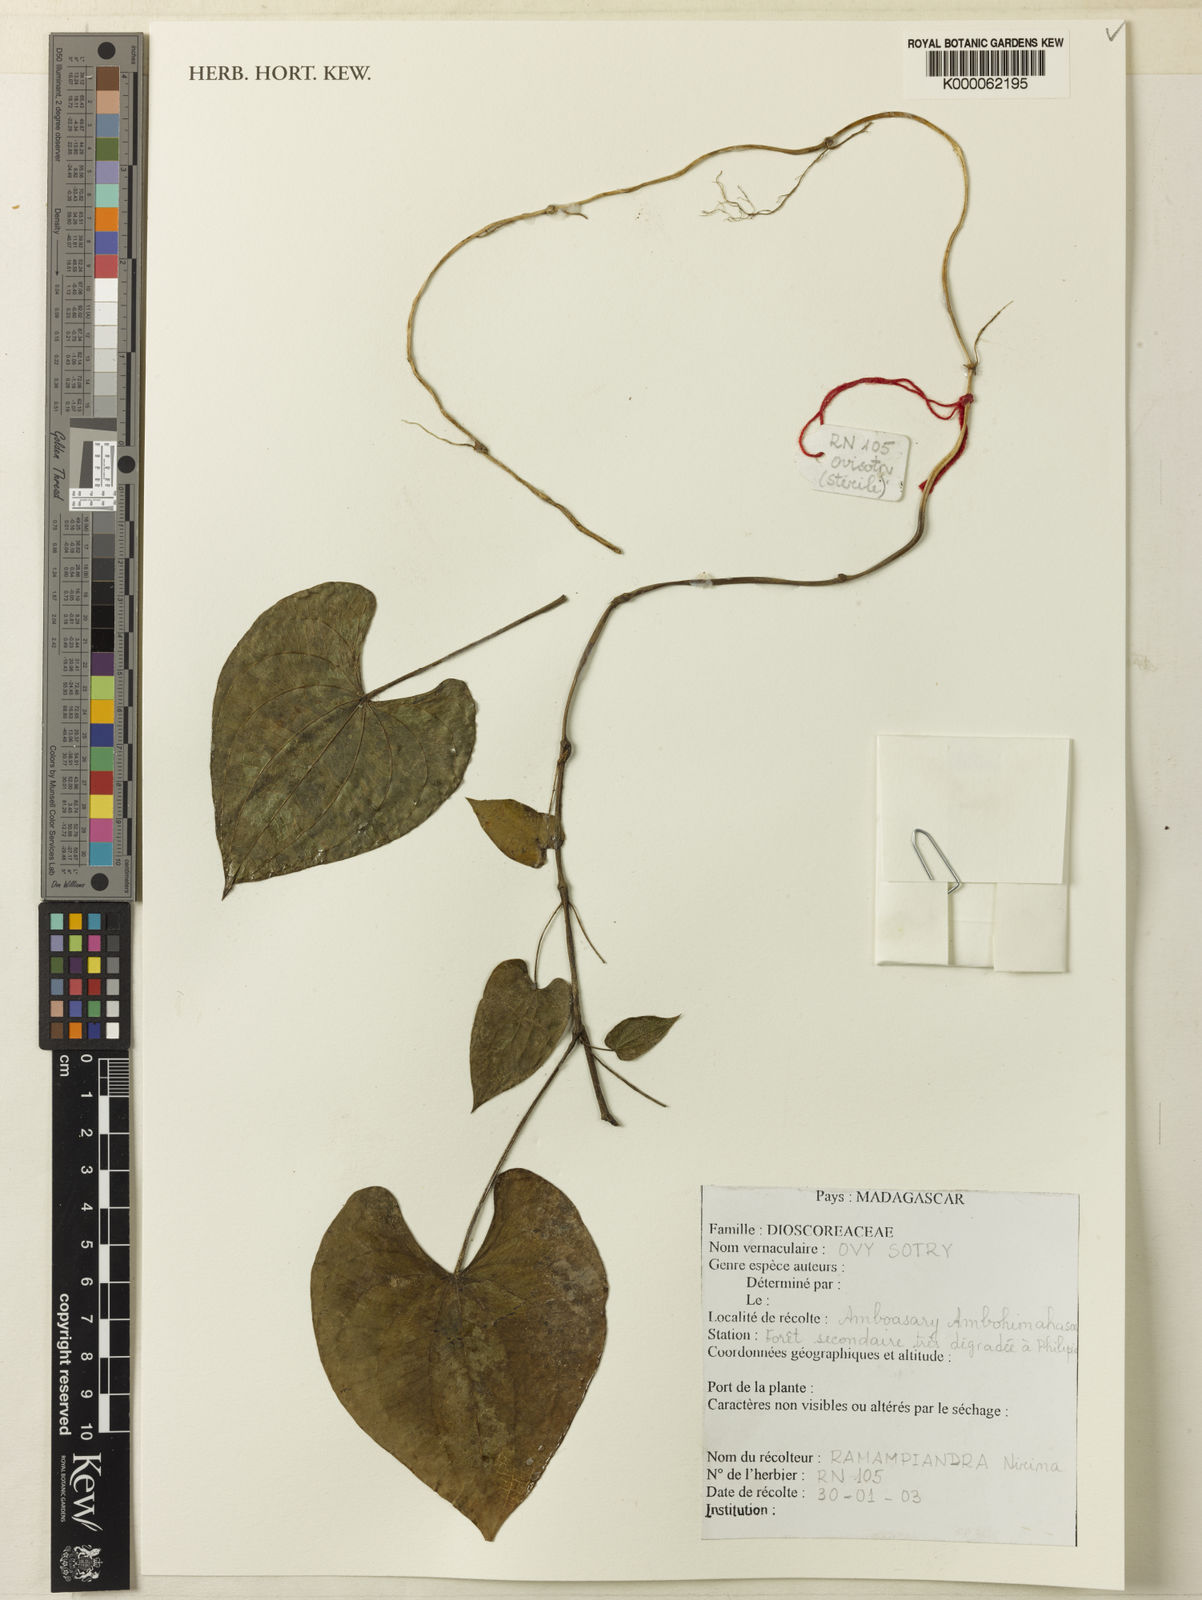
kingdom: Plantae
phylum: Tracheophyta
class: Liliopsida
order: Dioscoreales
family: Dioscoreaceae
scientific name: Dioscoreaceae
